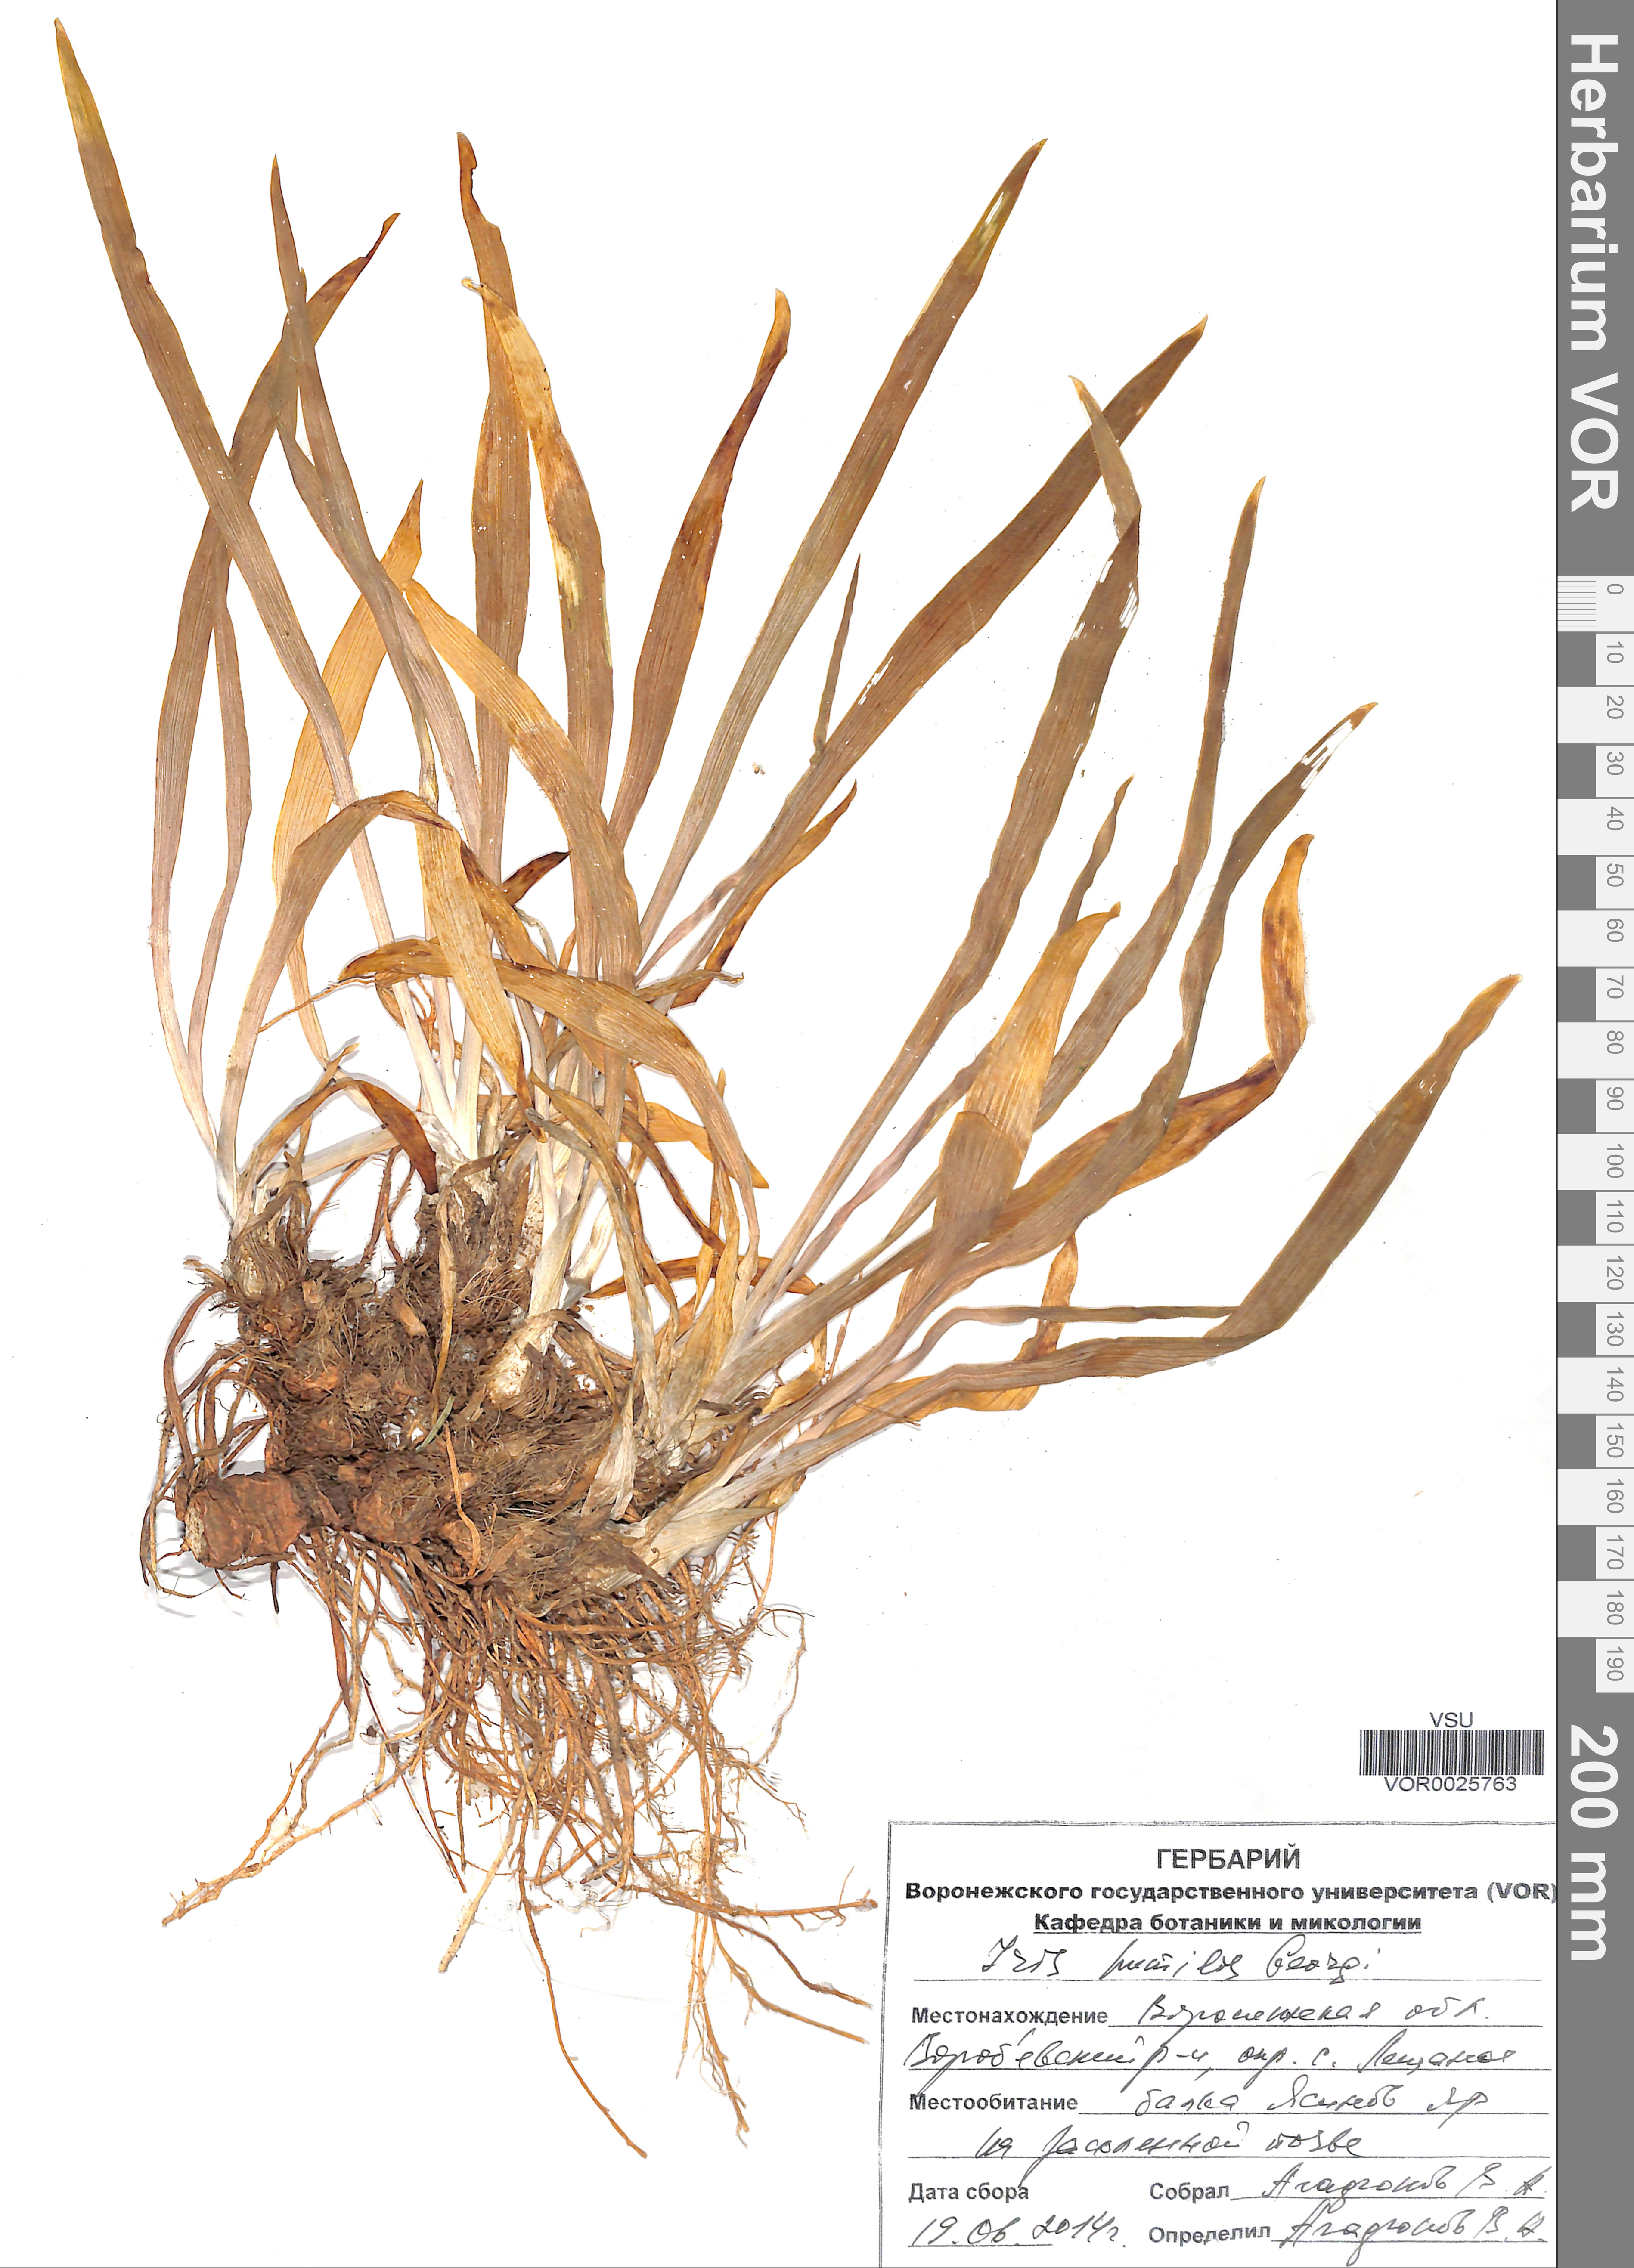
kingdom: Plantae
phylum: Tracheophyta
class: Liliopsida
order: Asparagales
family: Iridaceae
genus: Iris
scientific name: Iris humilis
